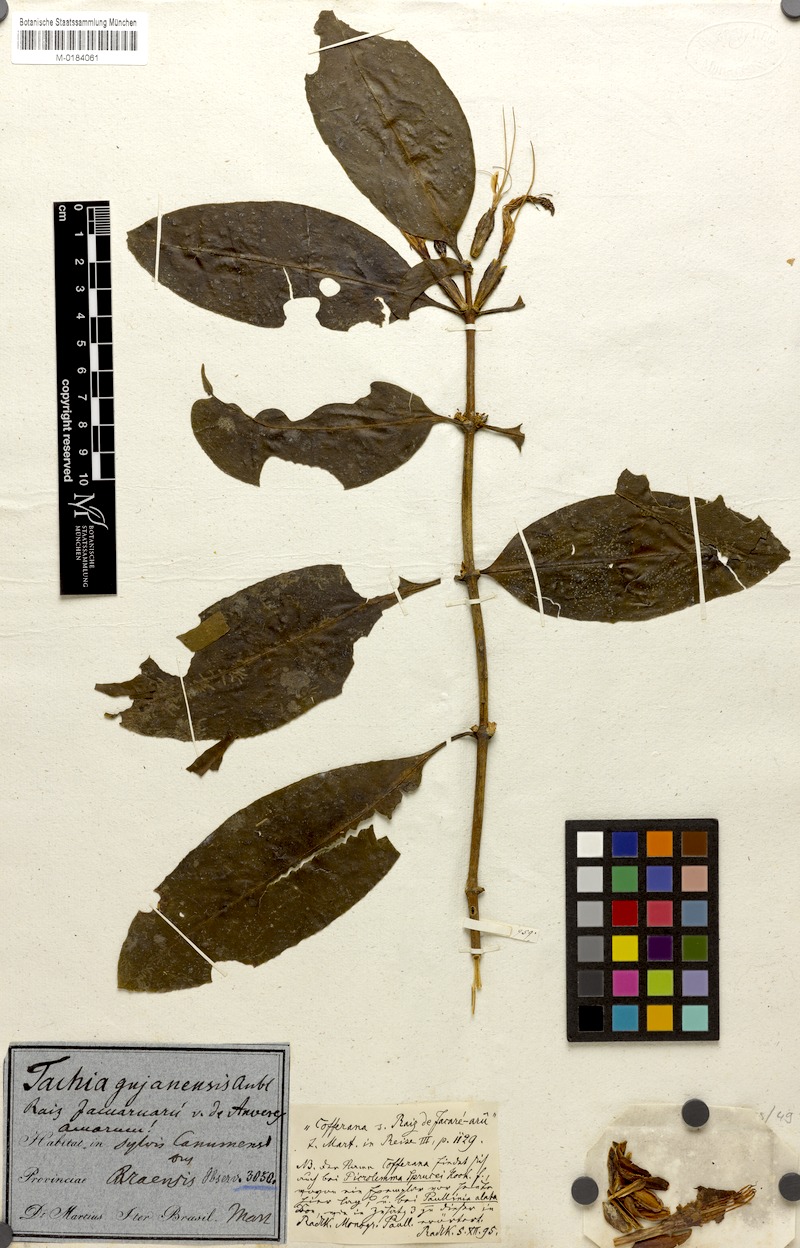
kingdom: Plantae
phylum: Tracheophyta
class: Magnoliopsida
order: Gentianales
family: Gentianaceae
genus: Tachia
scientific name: Tachia guianensis
